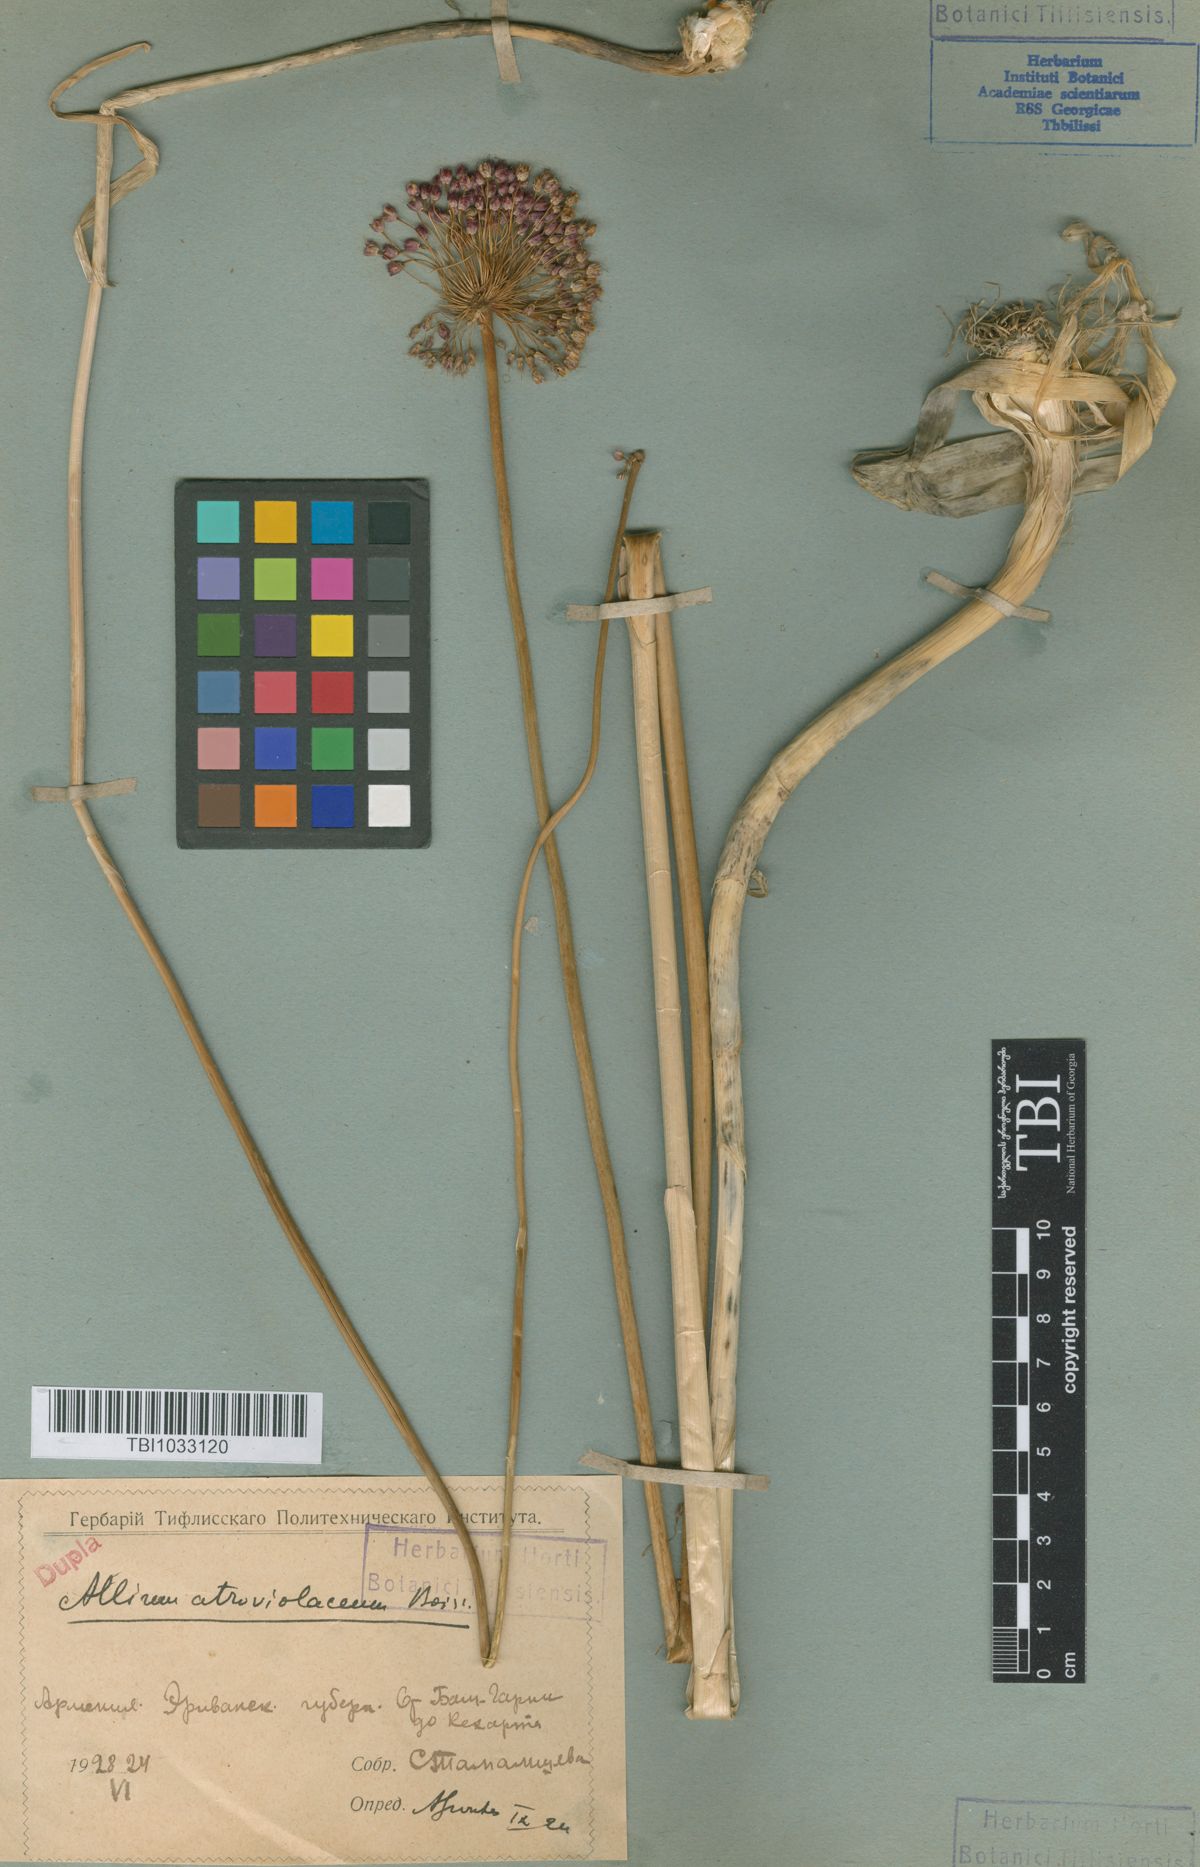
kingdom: Plantae
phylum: Tracheophyta
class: Liliopsida
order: Asparagales
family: Amaryllidaceae
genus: Allium
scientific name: Allium atroviolaceum
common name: Broadleaf wild leek
